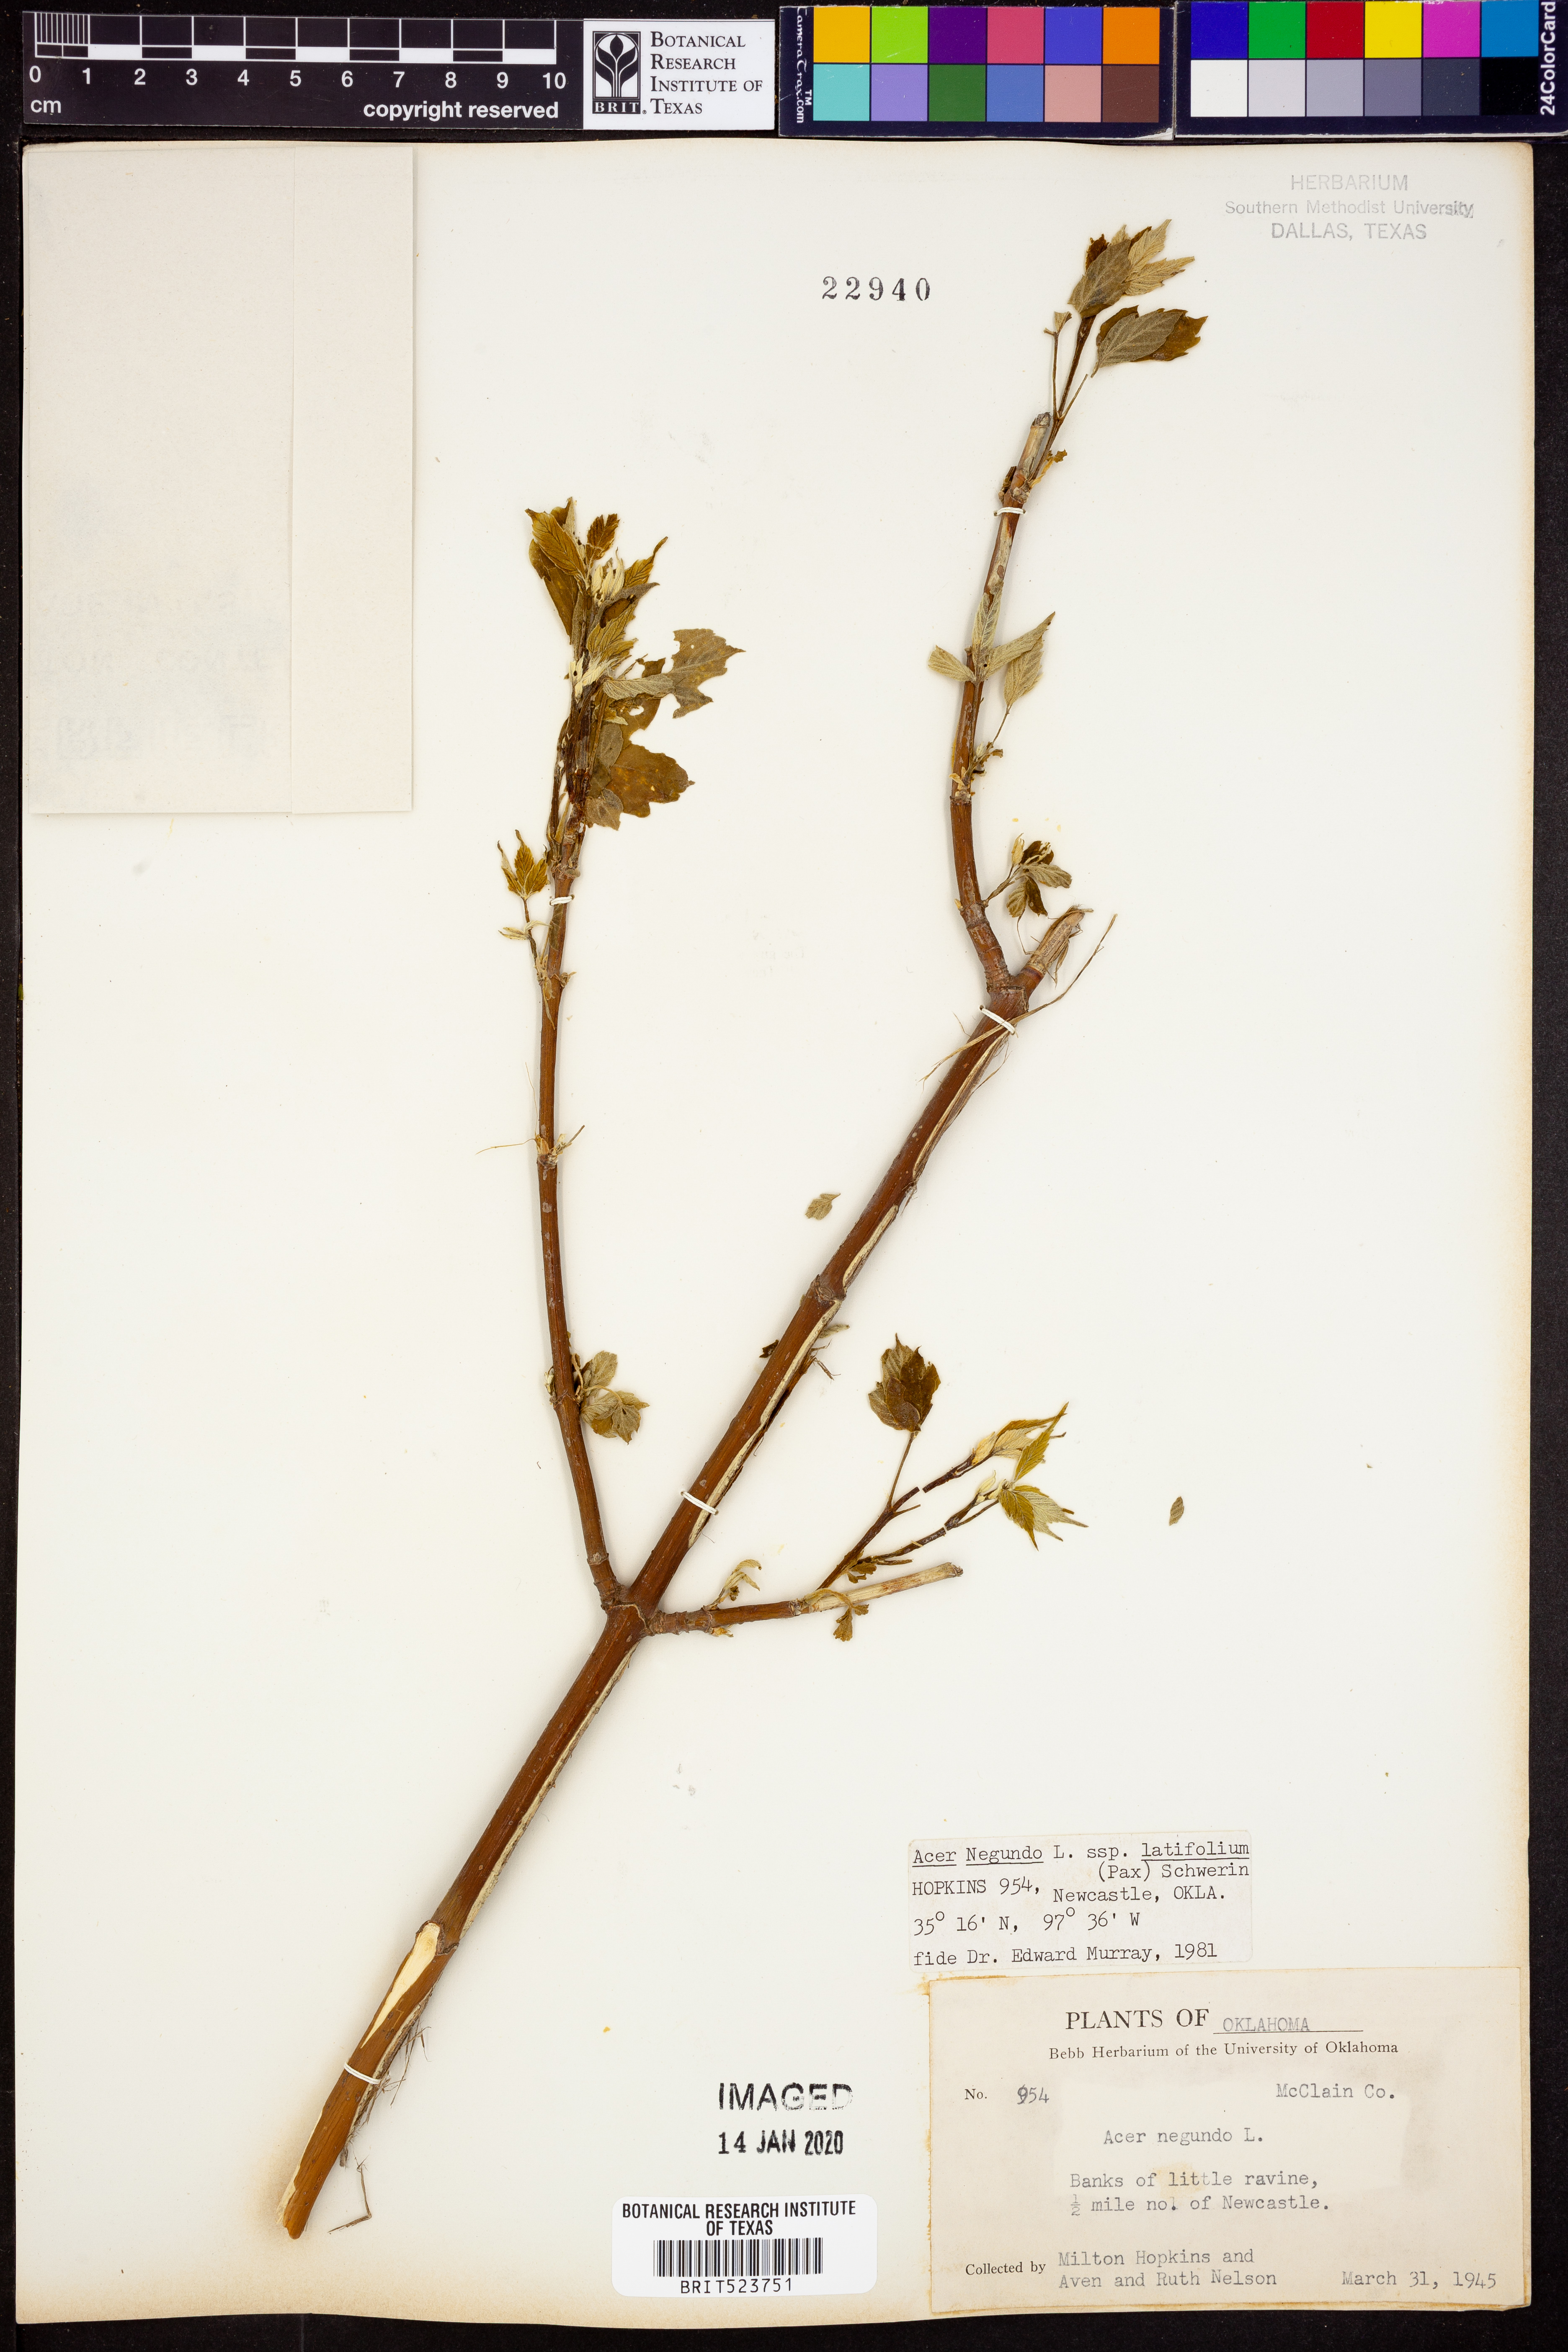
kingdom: Plantae
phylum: Tracheophyta
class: Magnoliopsida
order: Sapindales
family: Sapindaceae
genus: Acer
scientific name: Acer negundo
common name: Ashleaf maple
